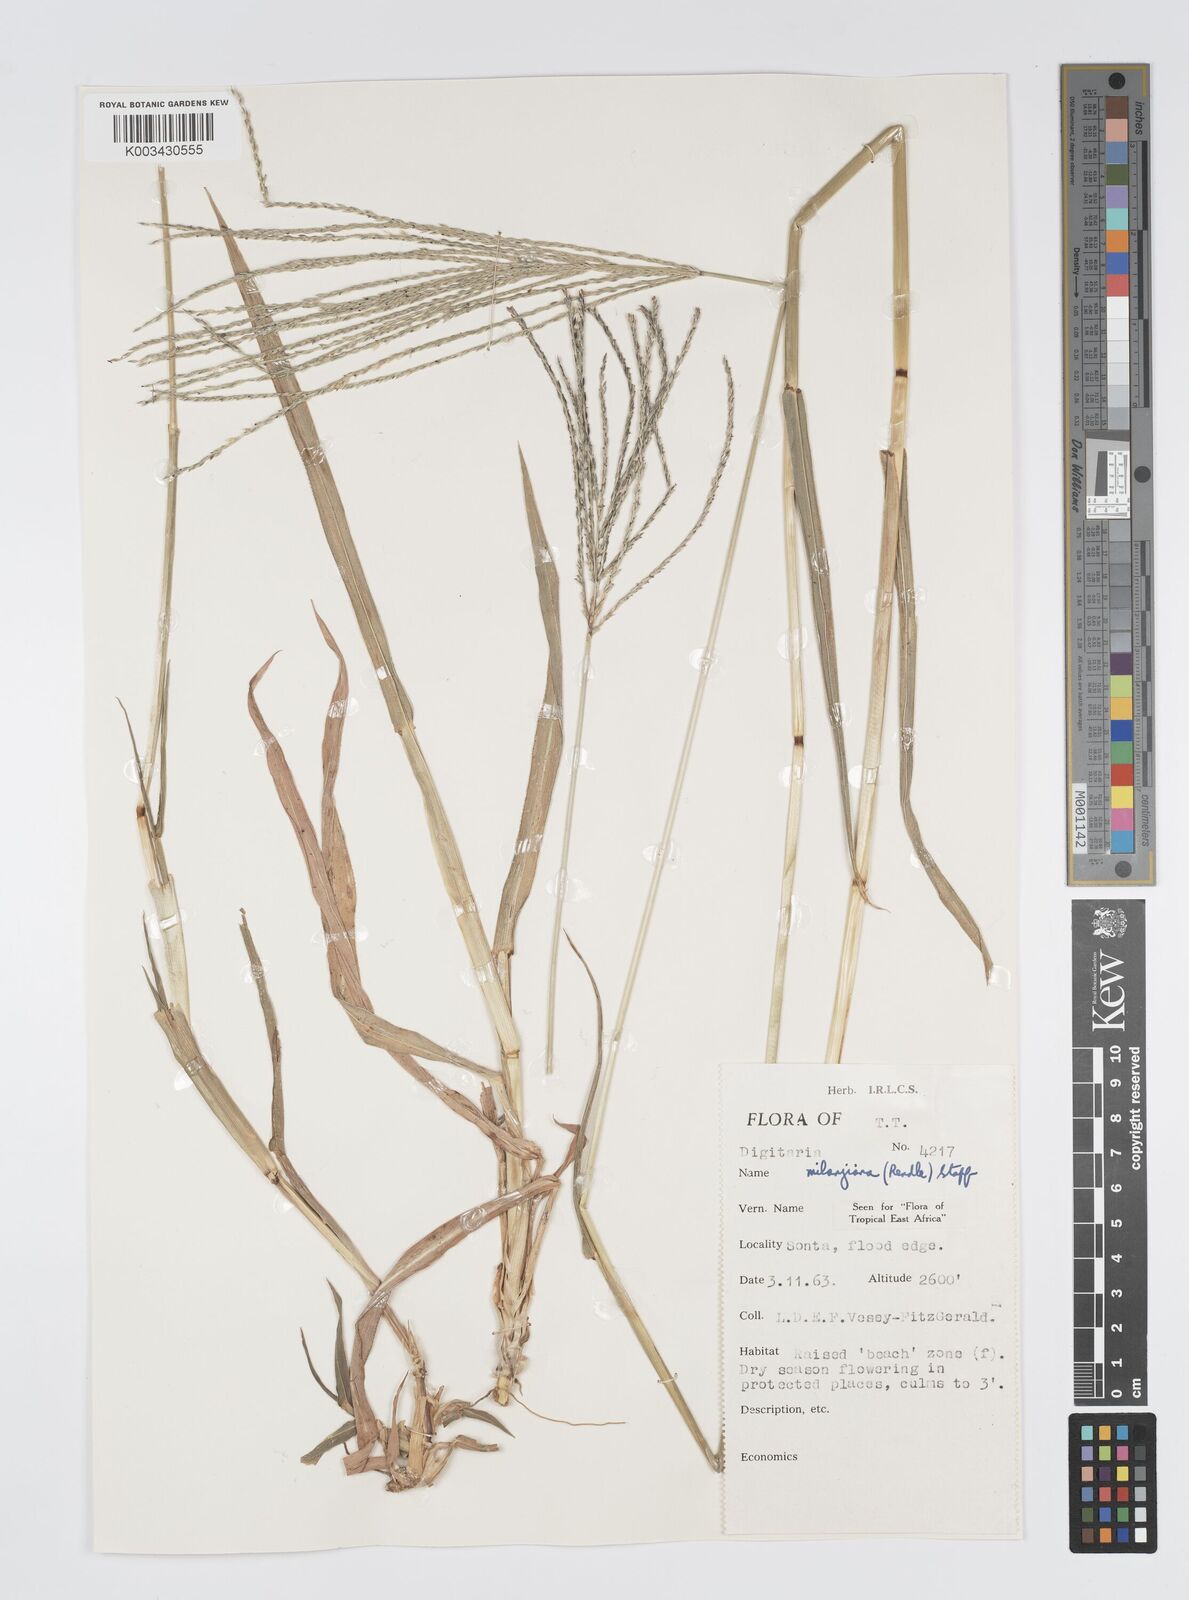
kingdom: Plantae
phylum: Tracheophyta
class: Liliopsida
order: Poales
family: Poaceae
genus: Digitaria
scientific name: Digitaria milanjiana
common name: Madagascar crabgrass
